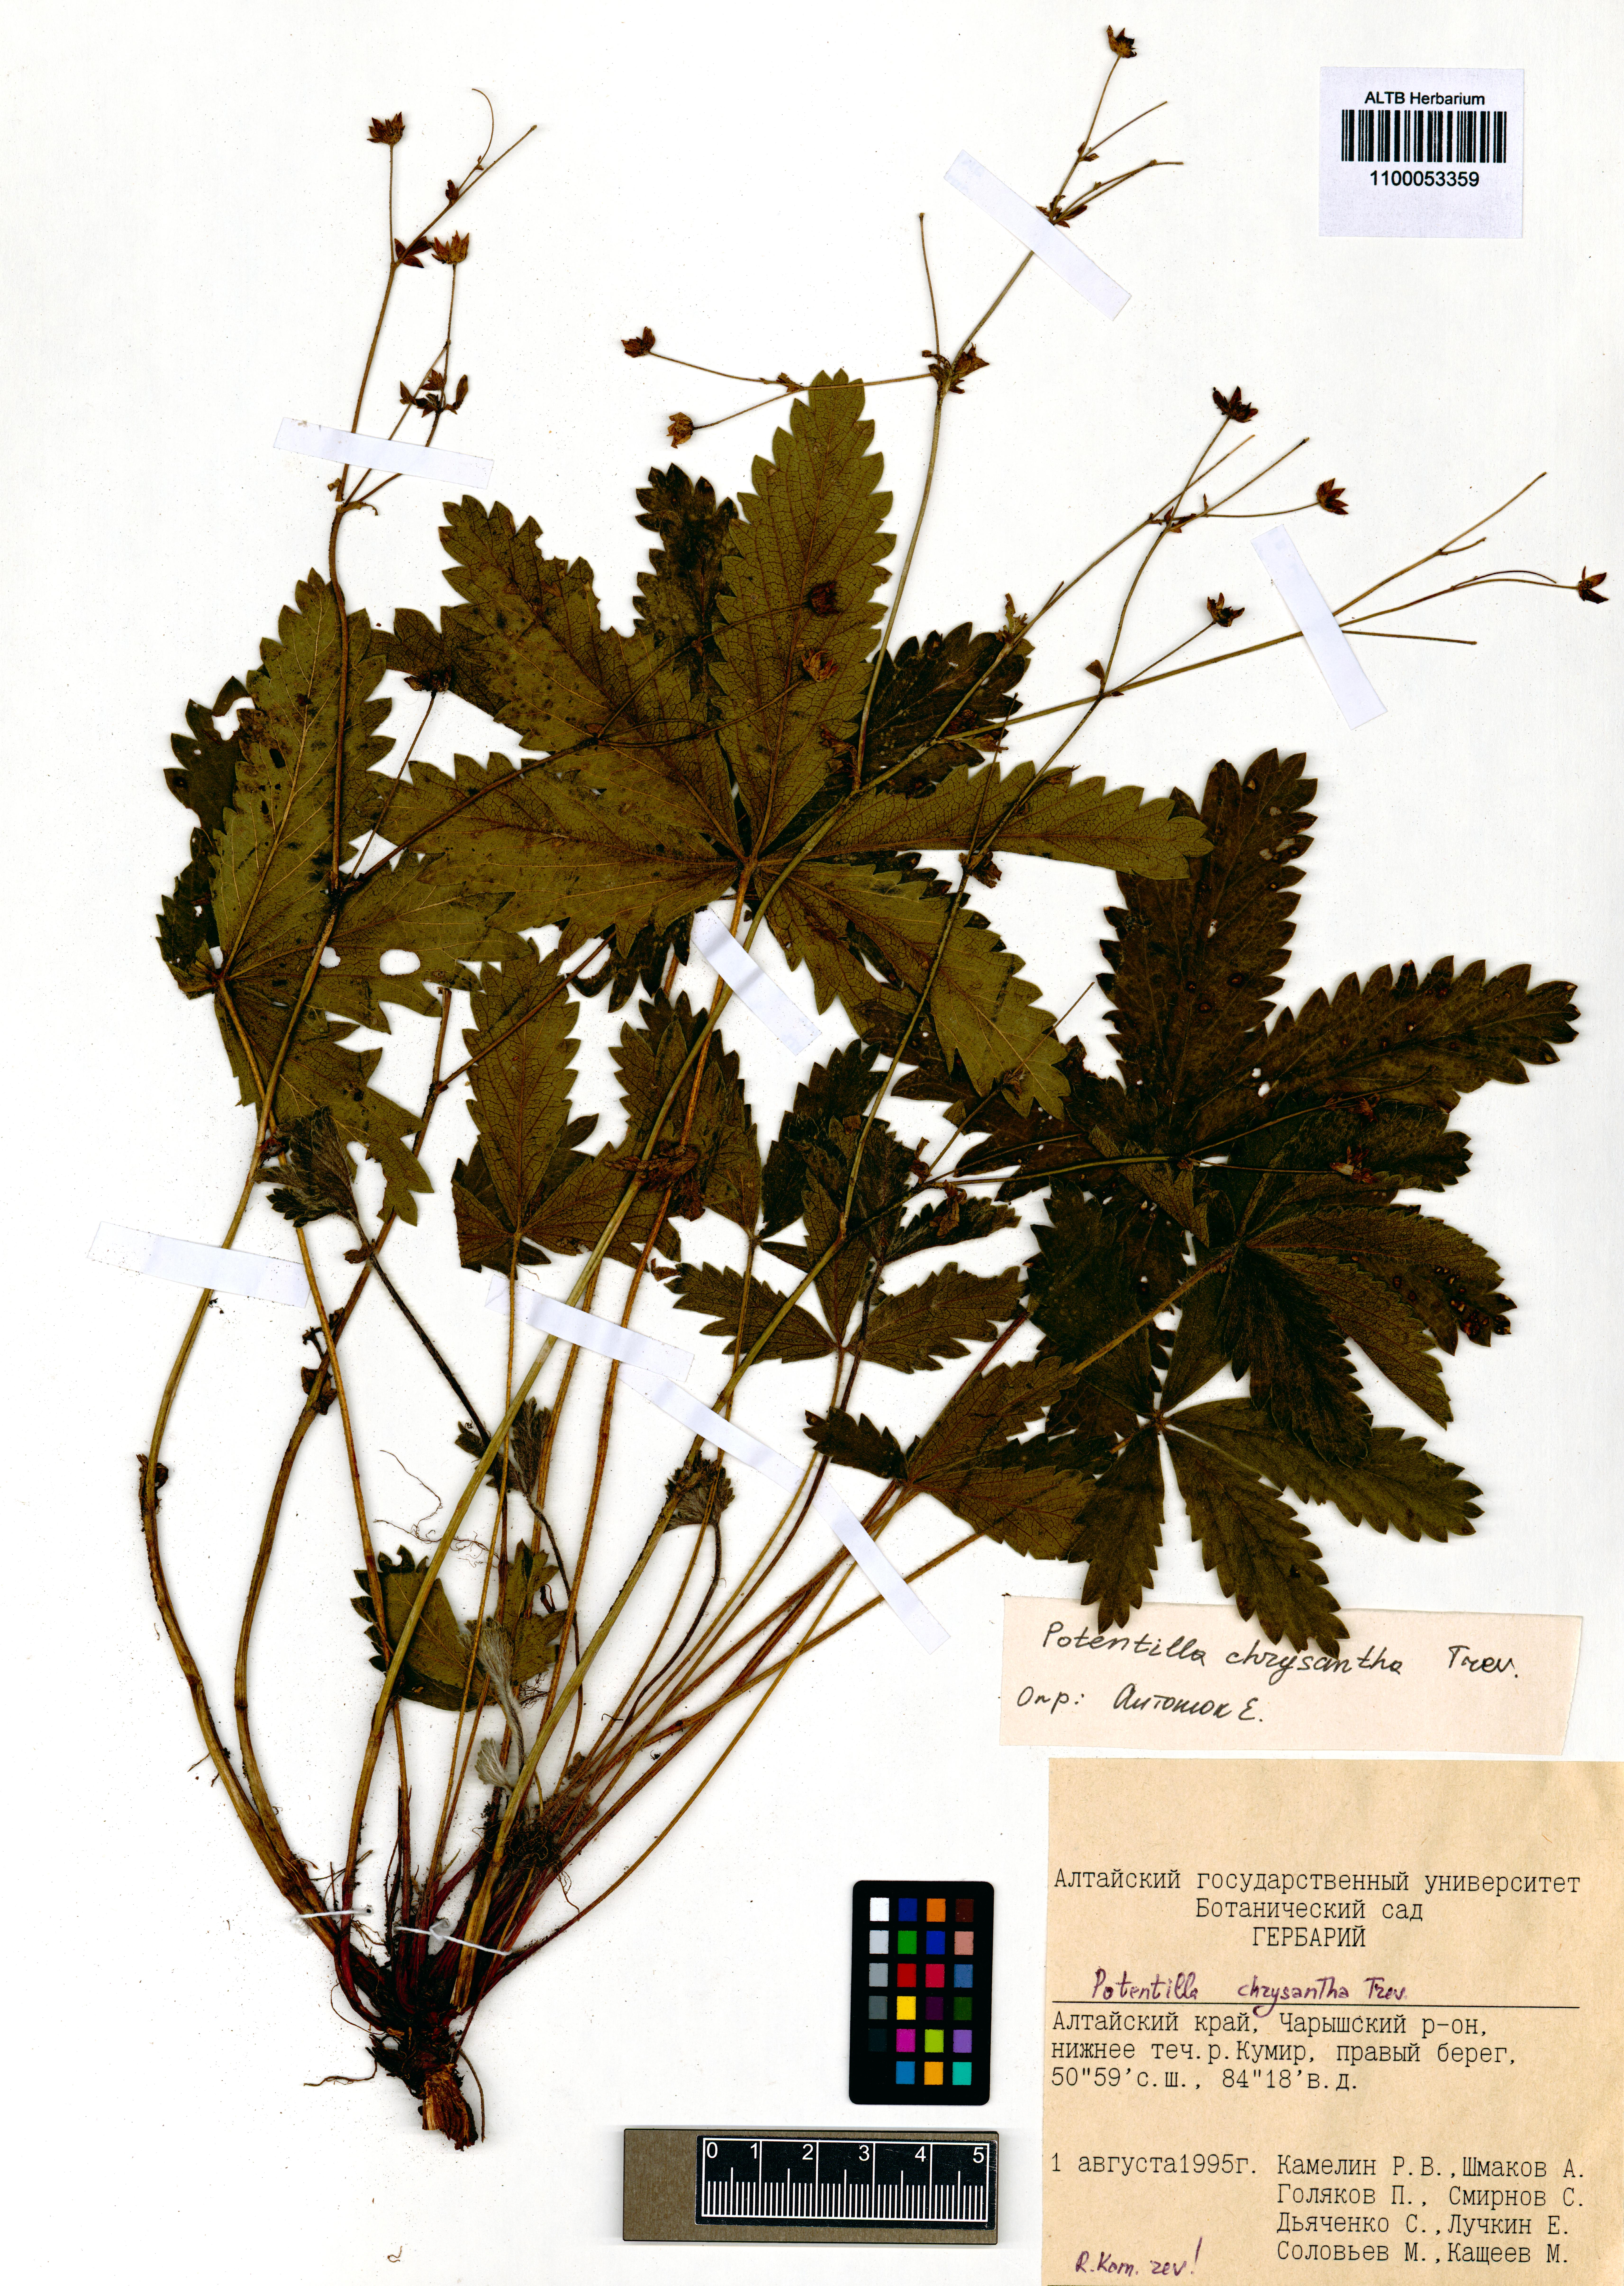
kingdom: Plantae
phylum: Tracheophyta
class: Magnoliopsida
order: Rosales
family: Rosaceae
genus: Potentilla
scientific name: Potentilla chrysantha
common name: Thuringian cinquefoil
